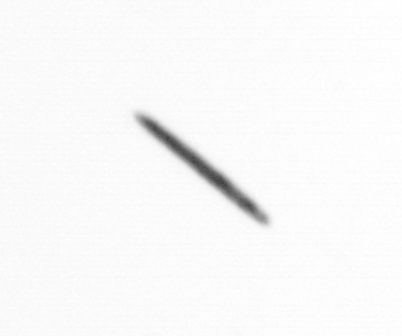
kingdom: Chromista
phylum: Ochrophyta
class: Bacillariophyceae
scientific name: Bacillariophyceae
